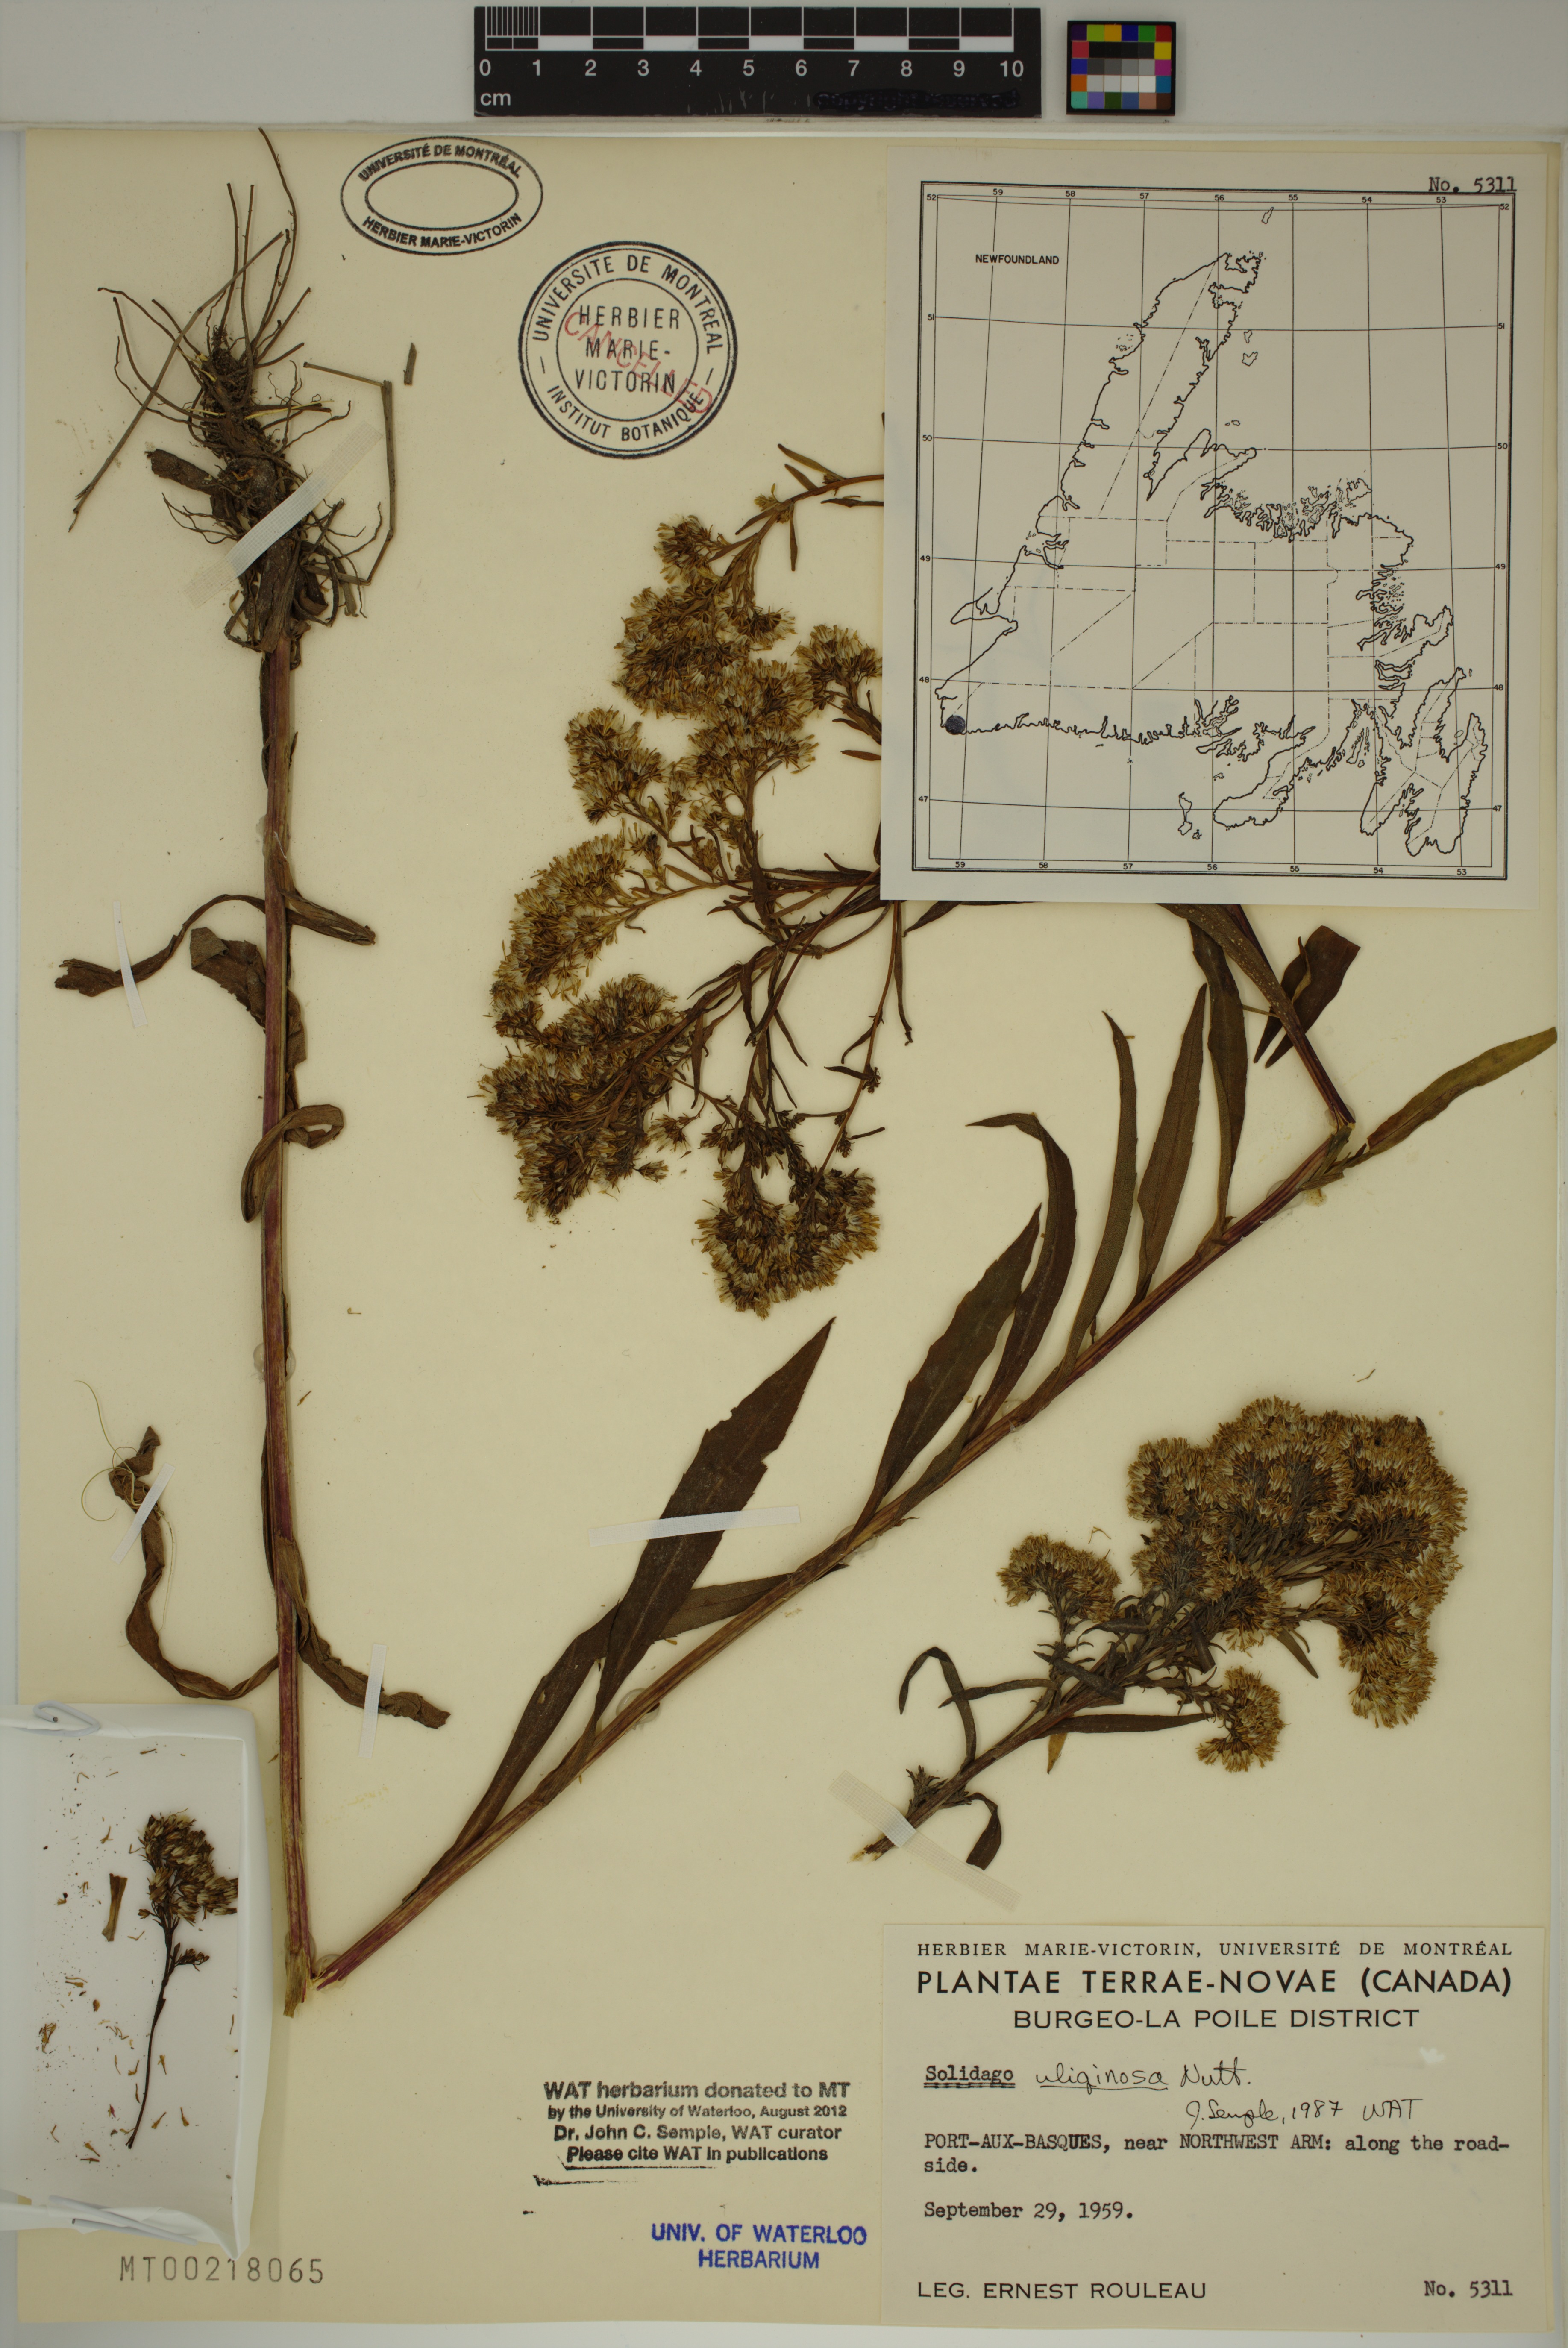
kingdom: Plantae
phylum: Tracheophyta
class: Magnoliopsida
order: Asterales
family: Asteraceae
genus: Solidago
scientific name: Solidago uliginosa
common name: Bog goldenrod
